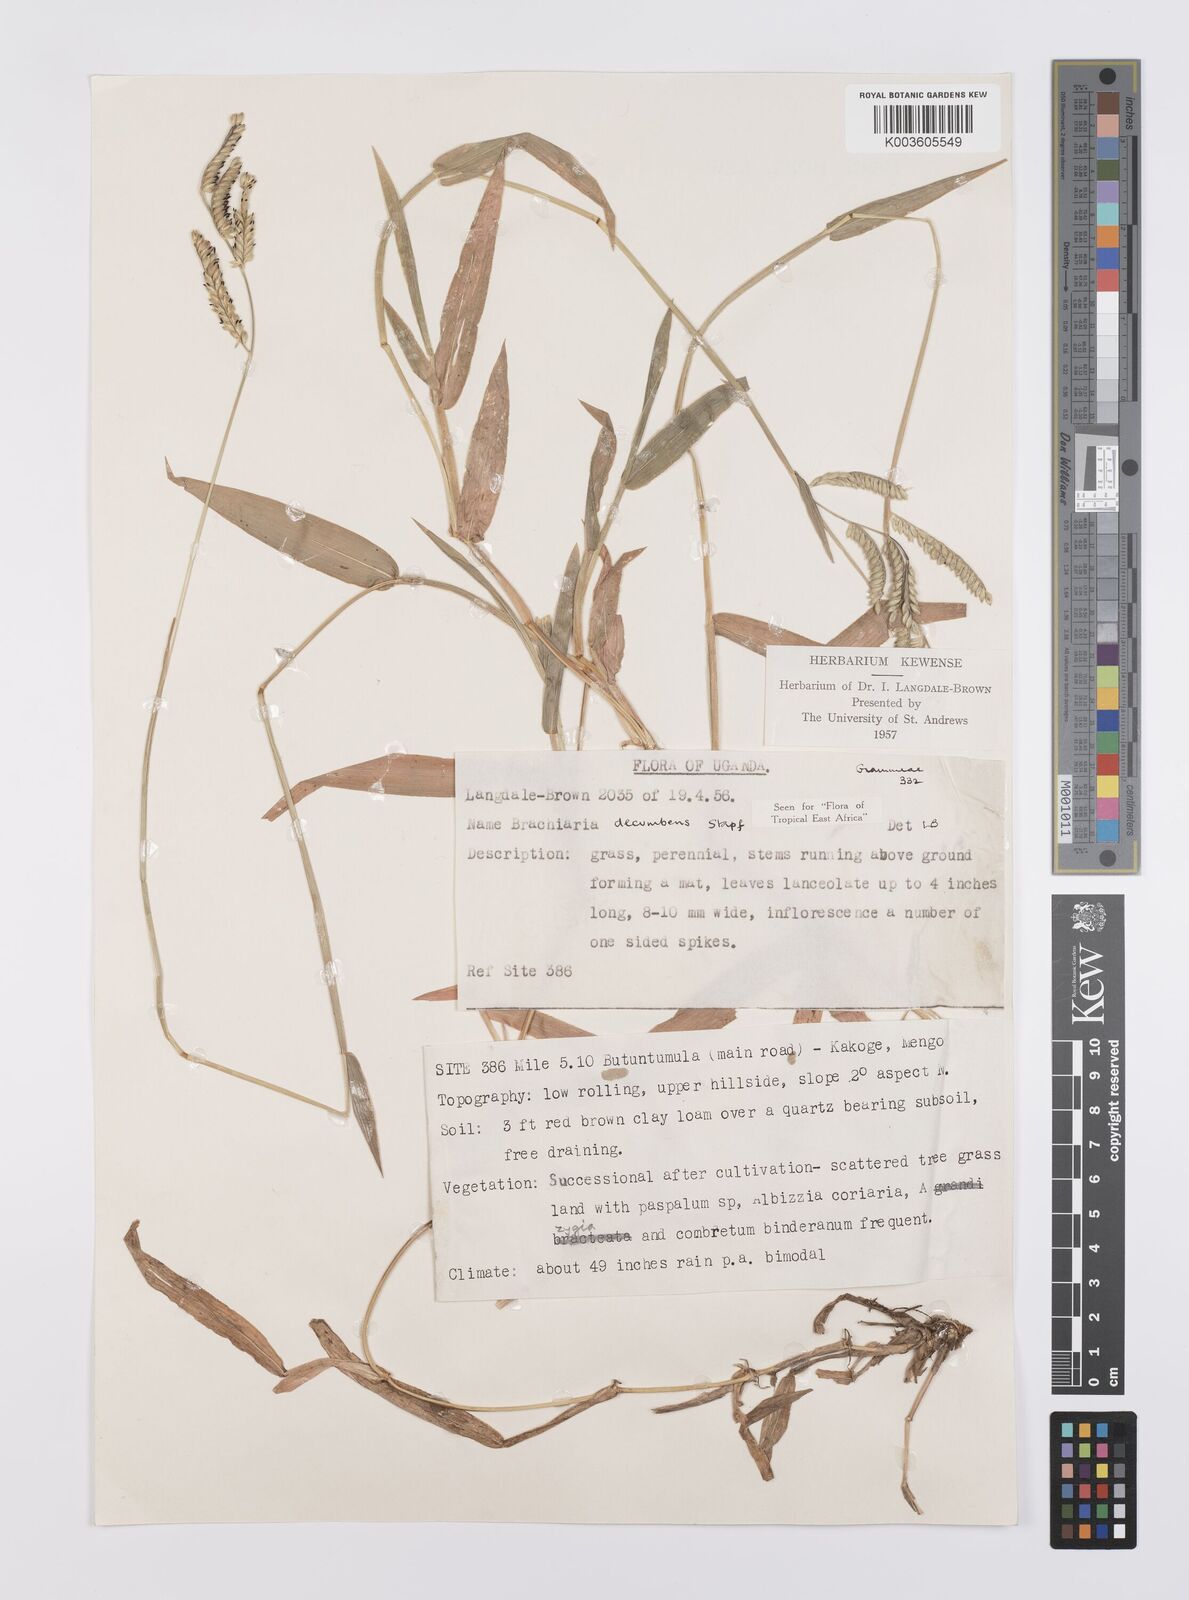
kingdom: Plantae
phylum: Tracheophyta
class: Liliopsida
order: Poales
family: Poaceae
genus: Urochloa
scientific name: Urochloa eminii
